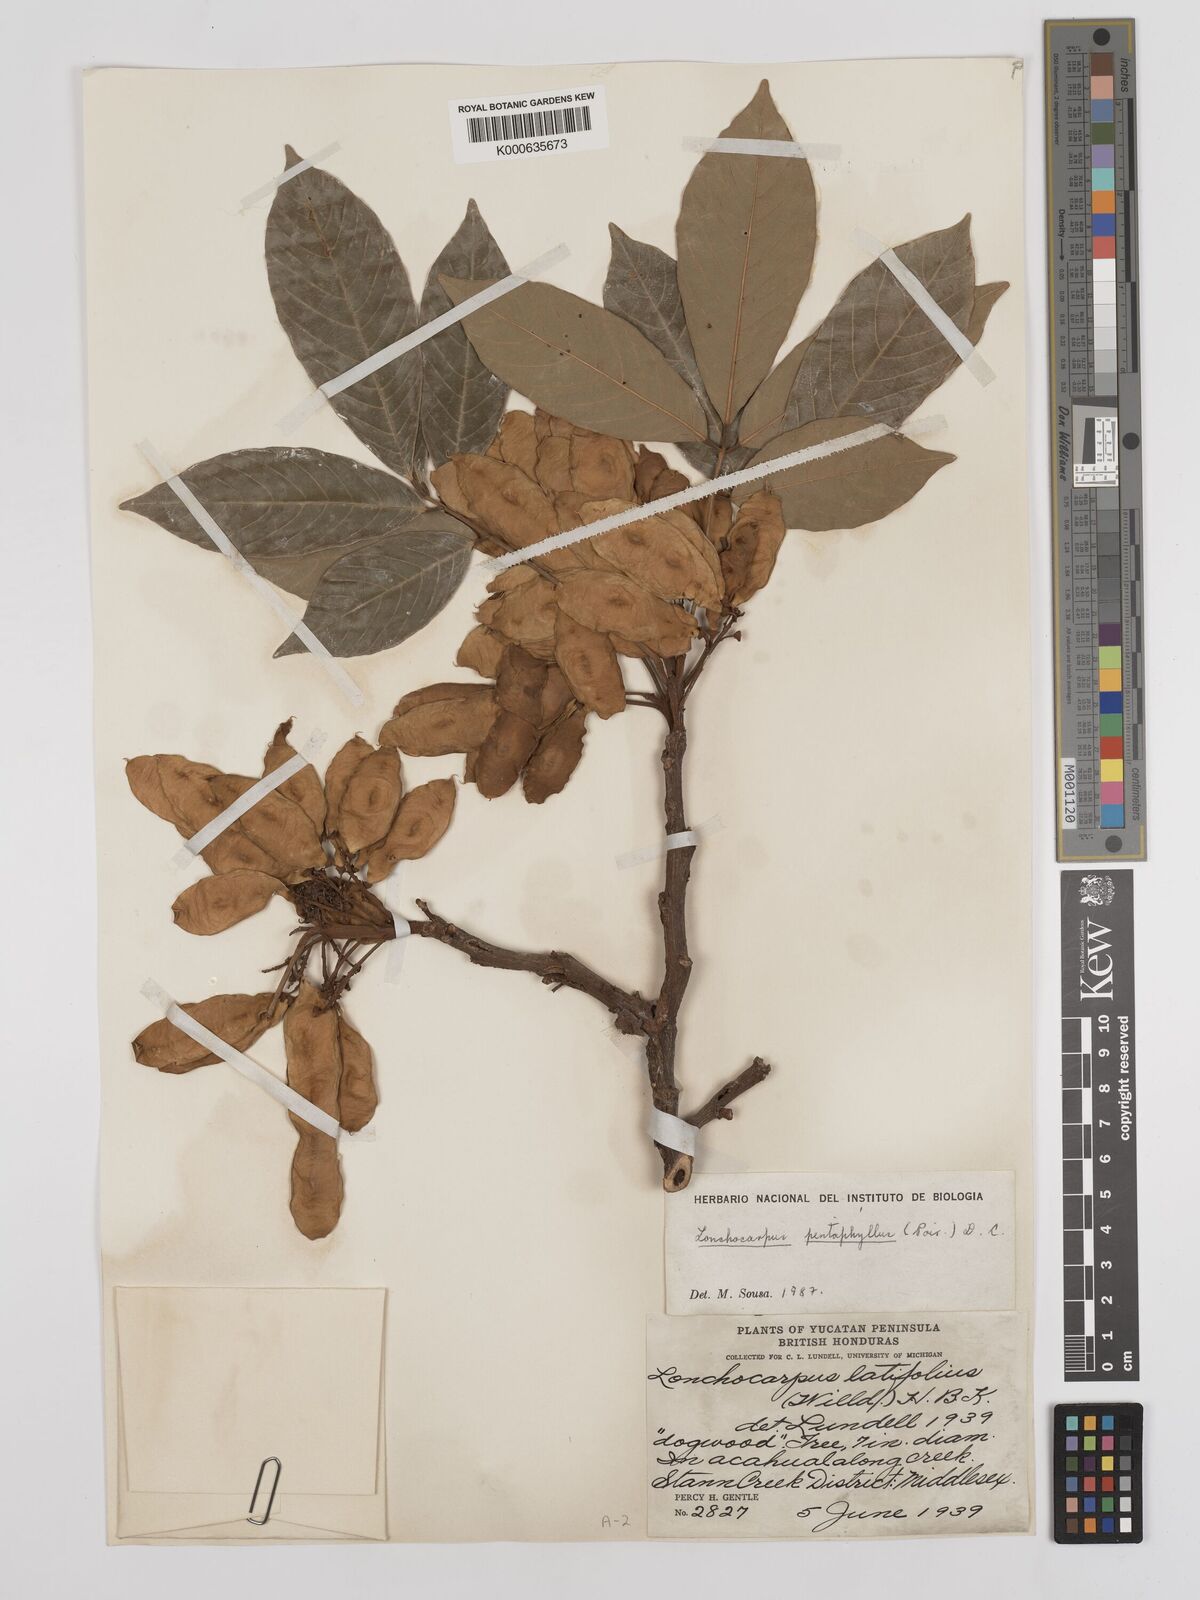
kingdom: Plantae
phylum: Tracheophyta
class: Magnoliopsida
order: Fabales
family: Fabaceae
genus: Lonchocarpus
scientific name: Lonchocarpus
